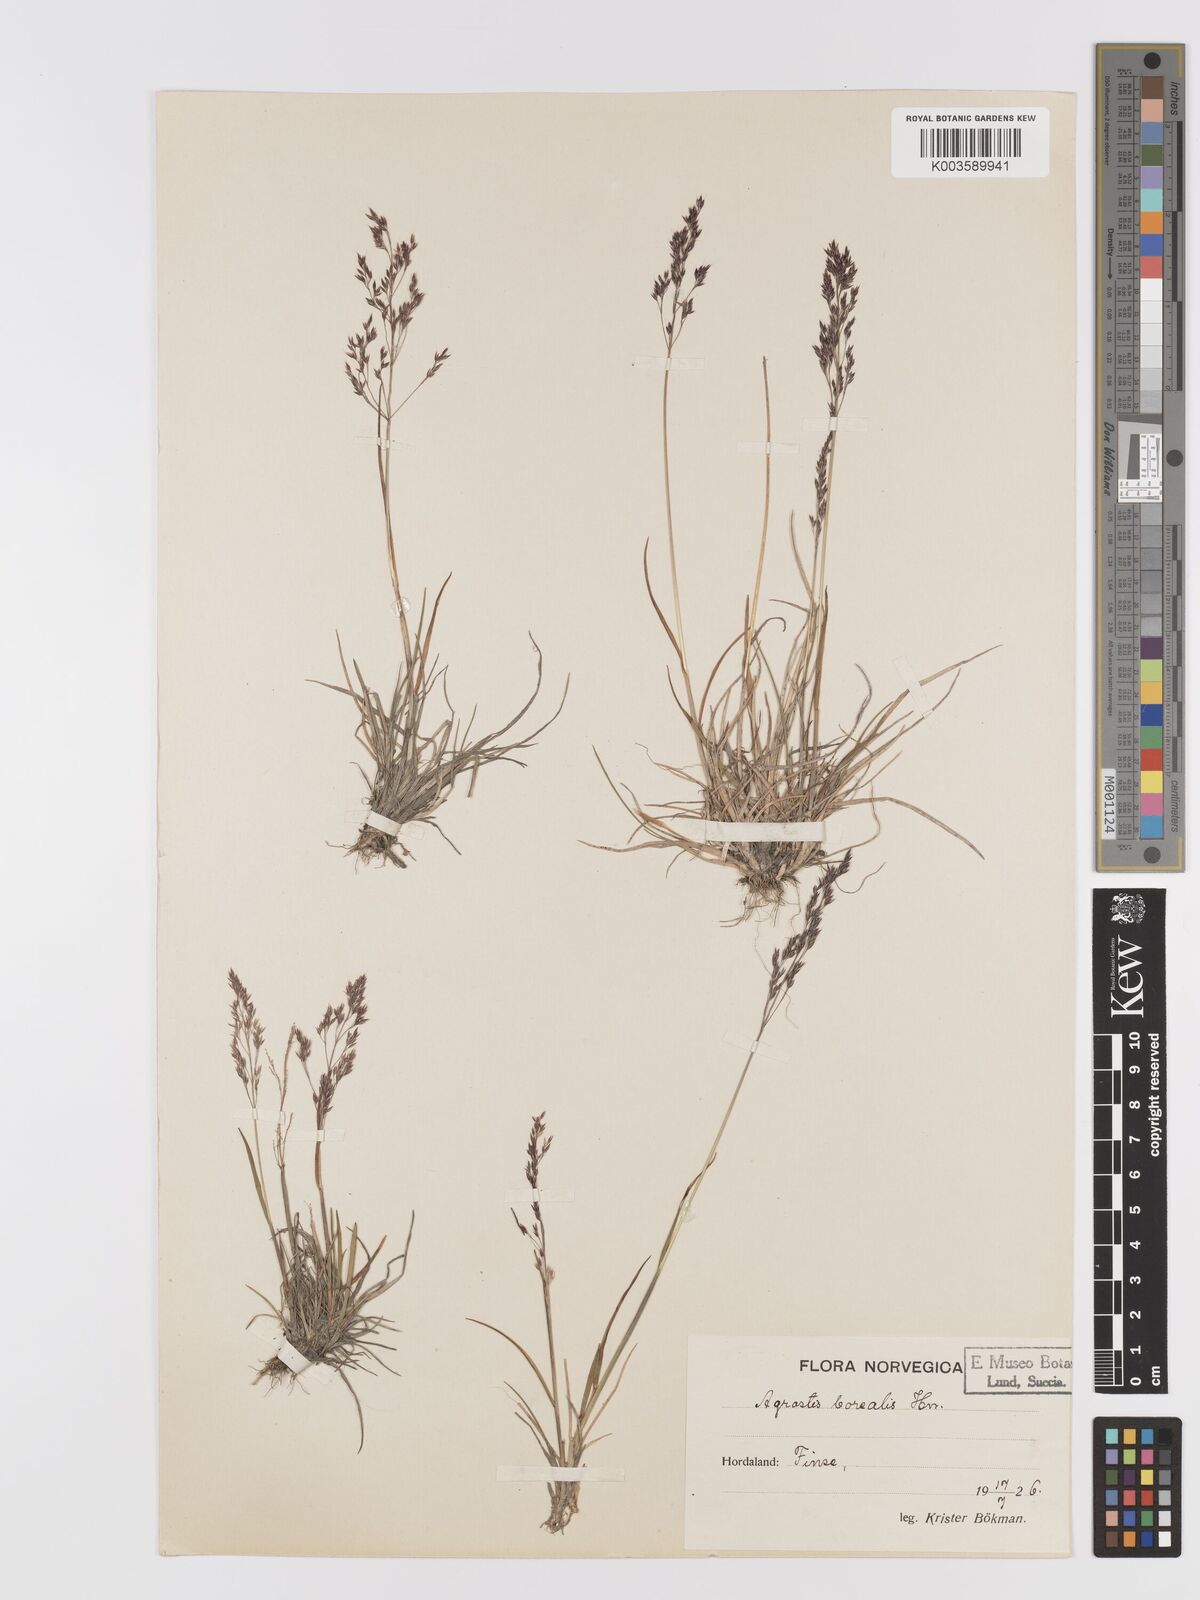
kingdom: Plantae
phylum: Tracheophyta
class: Liliopsida
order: Poales
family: Poaceae
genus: Agrostis
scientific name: Agrostis mertensii
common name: Northern bent
